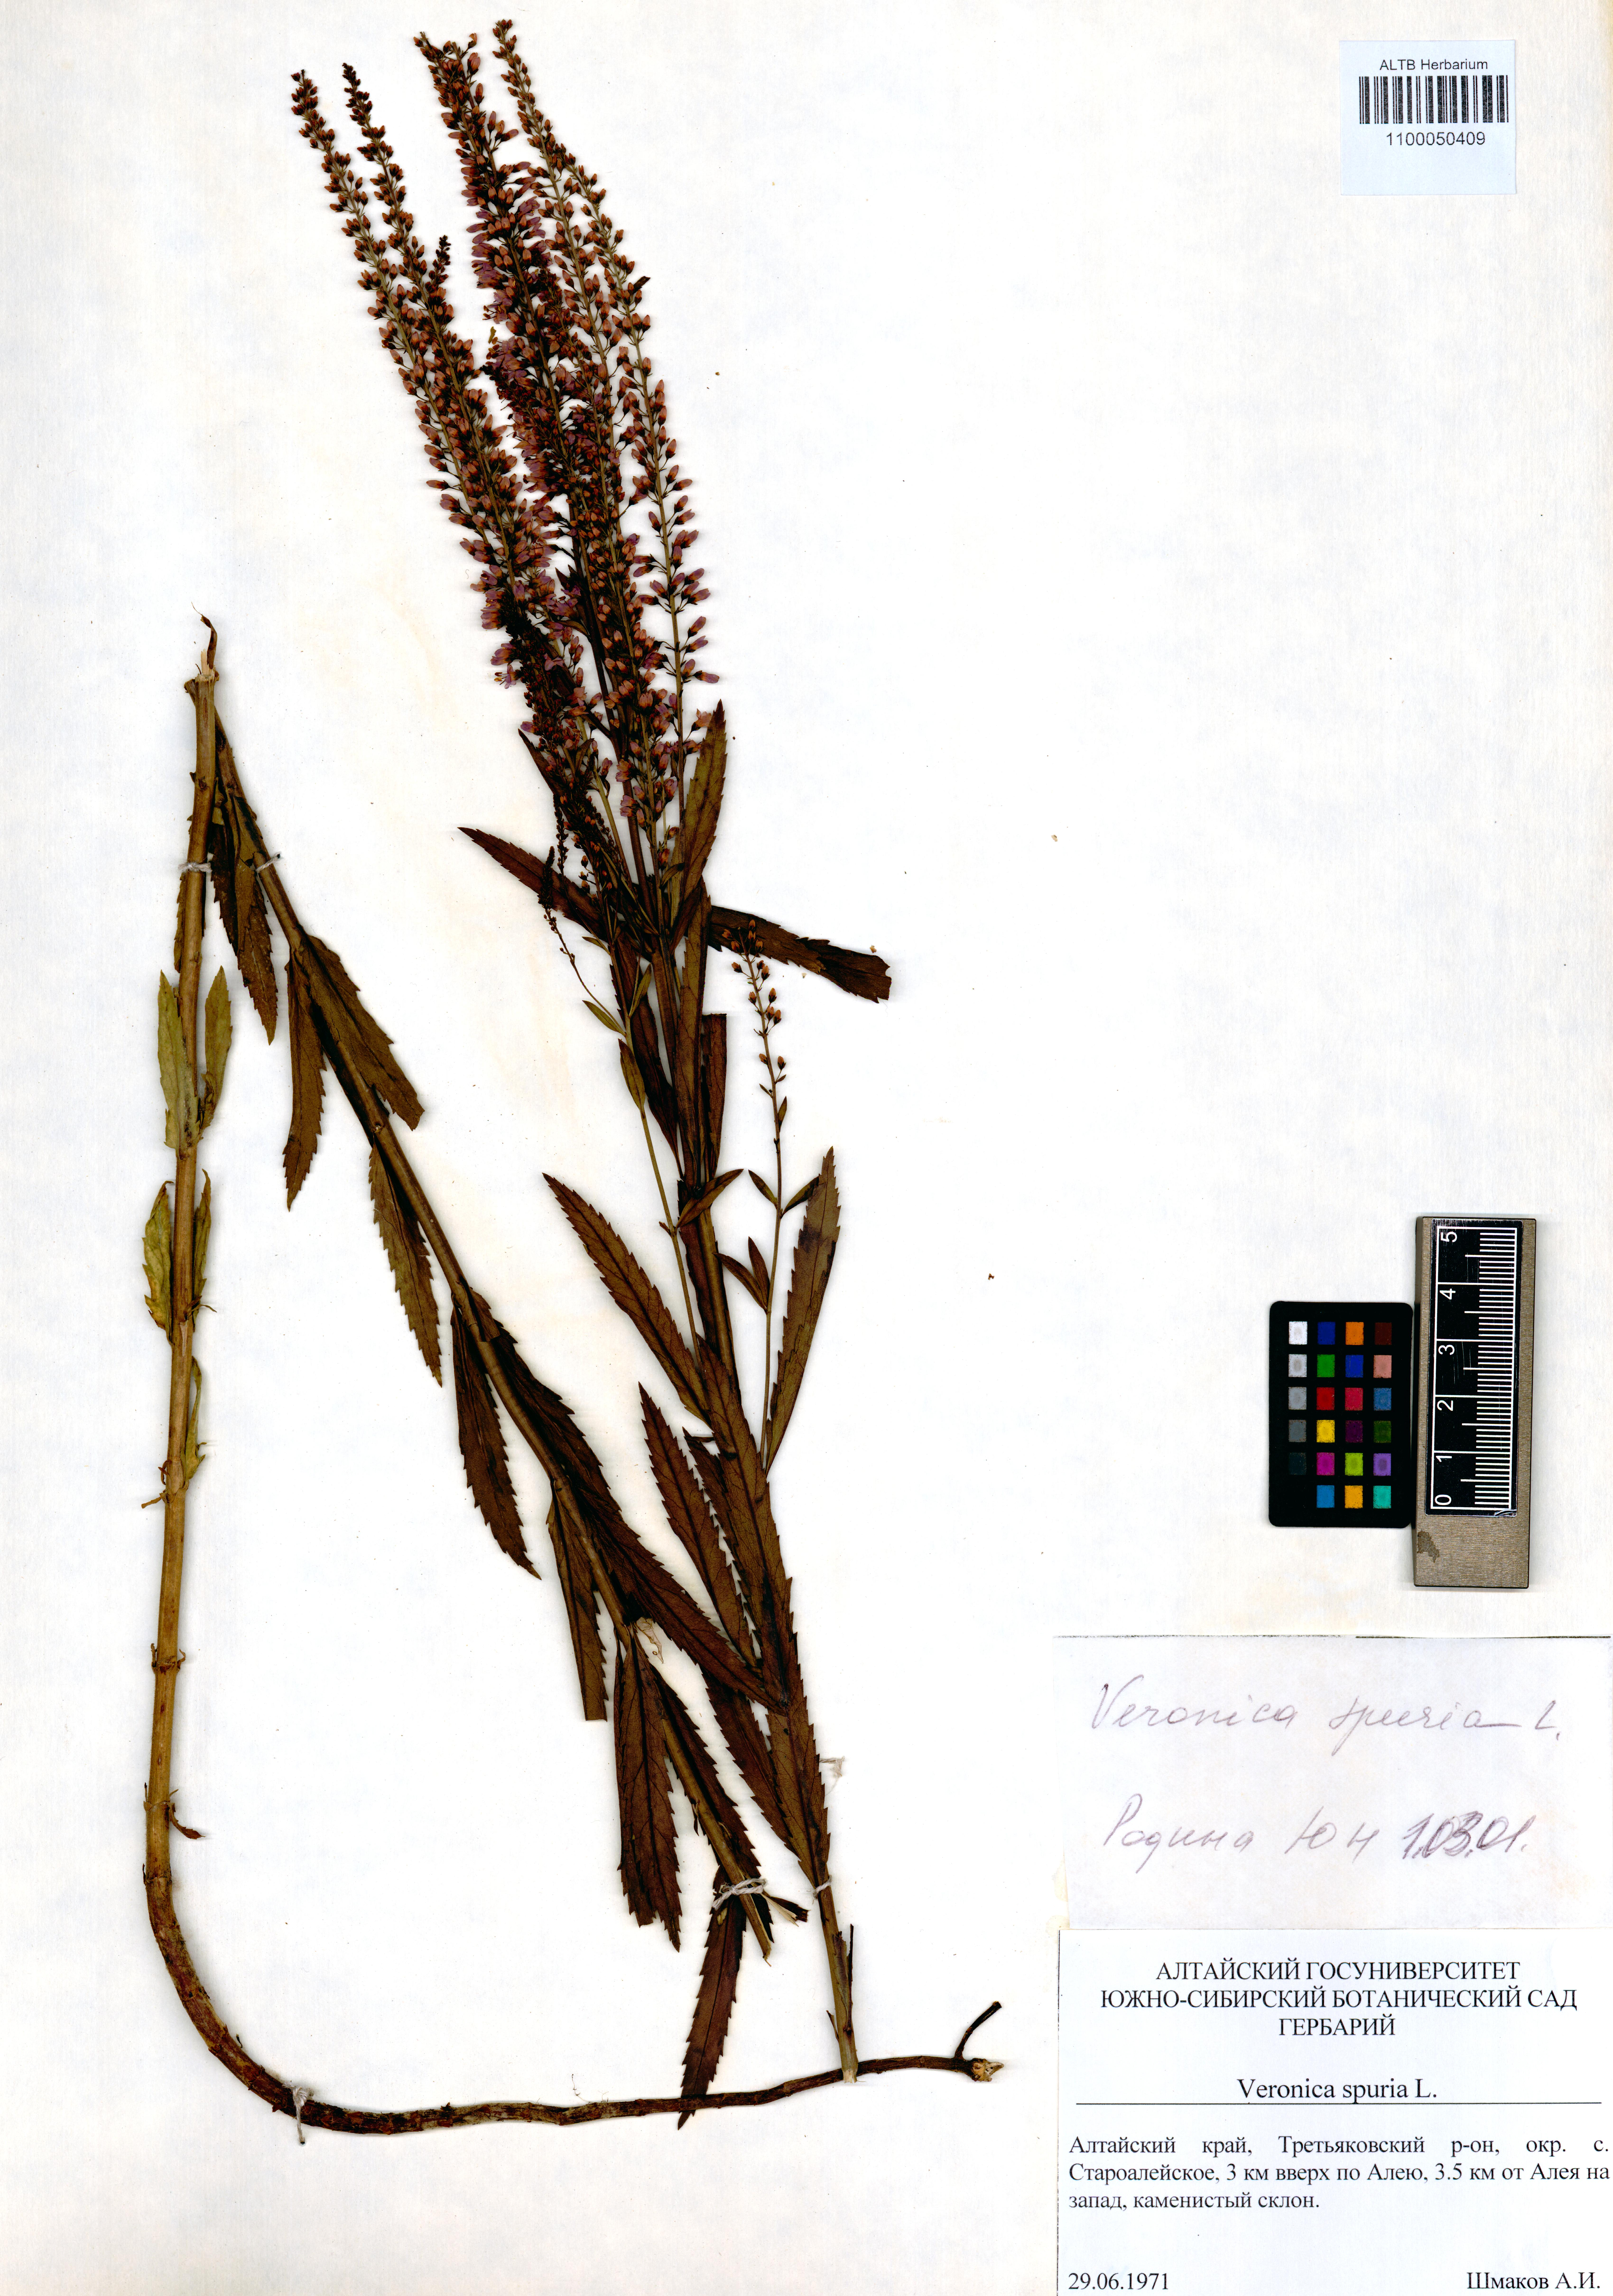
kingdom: Plantae
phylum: Tracheophyta
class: Magnoliopsida
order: Lamiales
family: Plantaginaceae
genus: Veronica
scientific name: Veronica spuria
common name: Bastard speedwell
